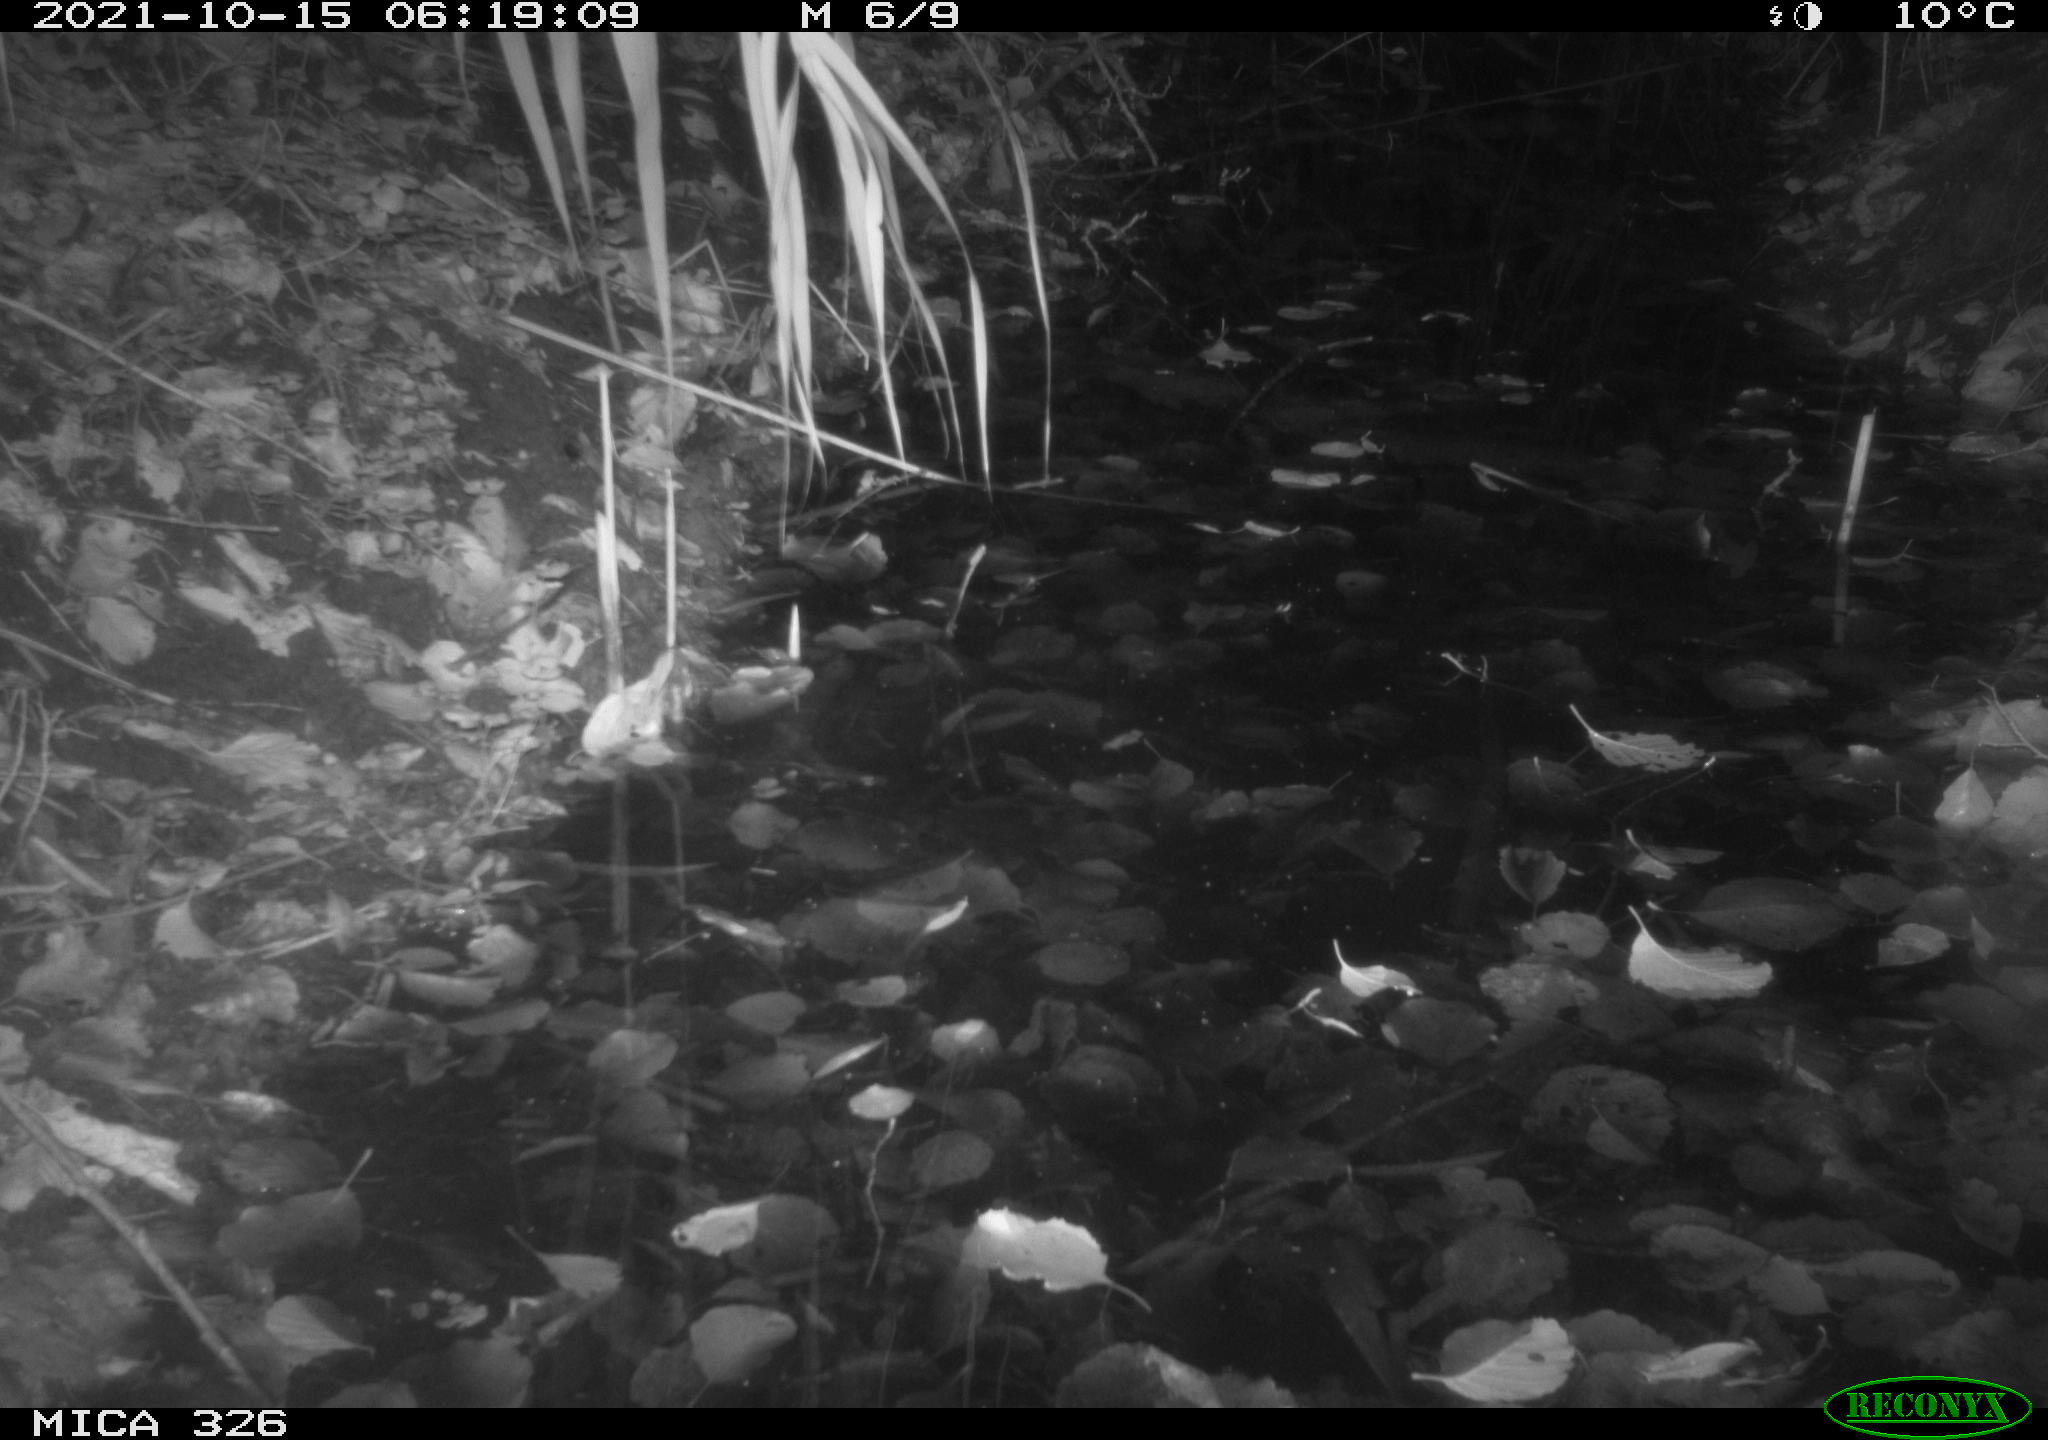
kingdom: Animalia
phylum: Chordata
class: Mammalia
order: Rodentia
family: Muridae
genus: Rattus
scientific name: Rattus norvegicus
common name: Brown rat
